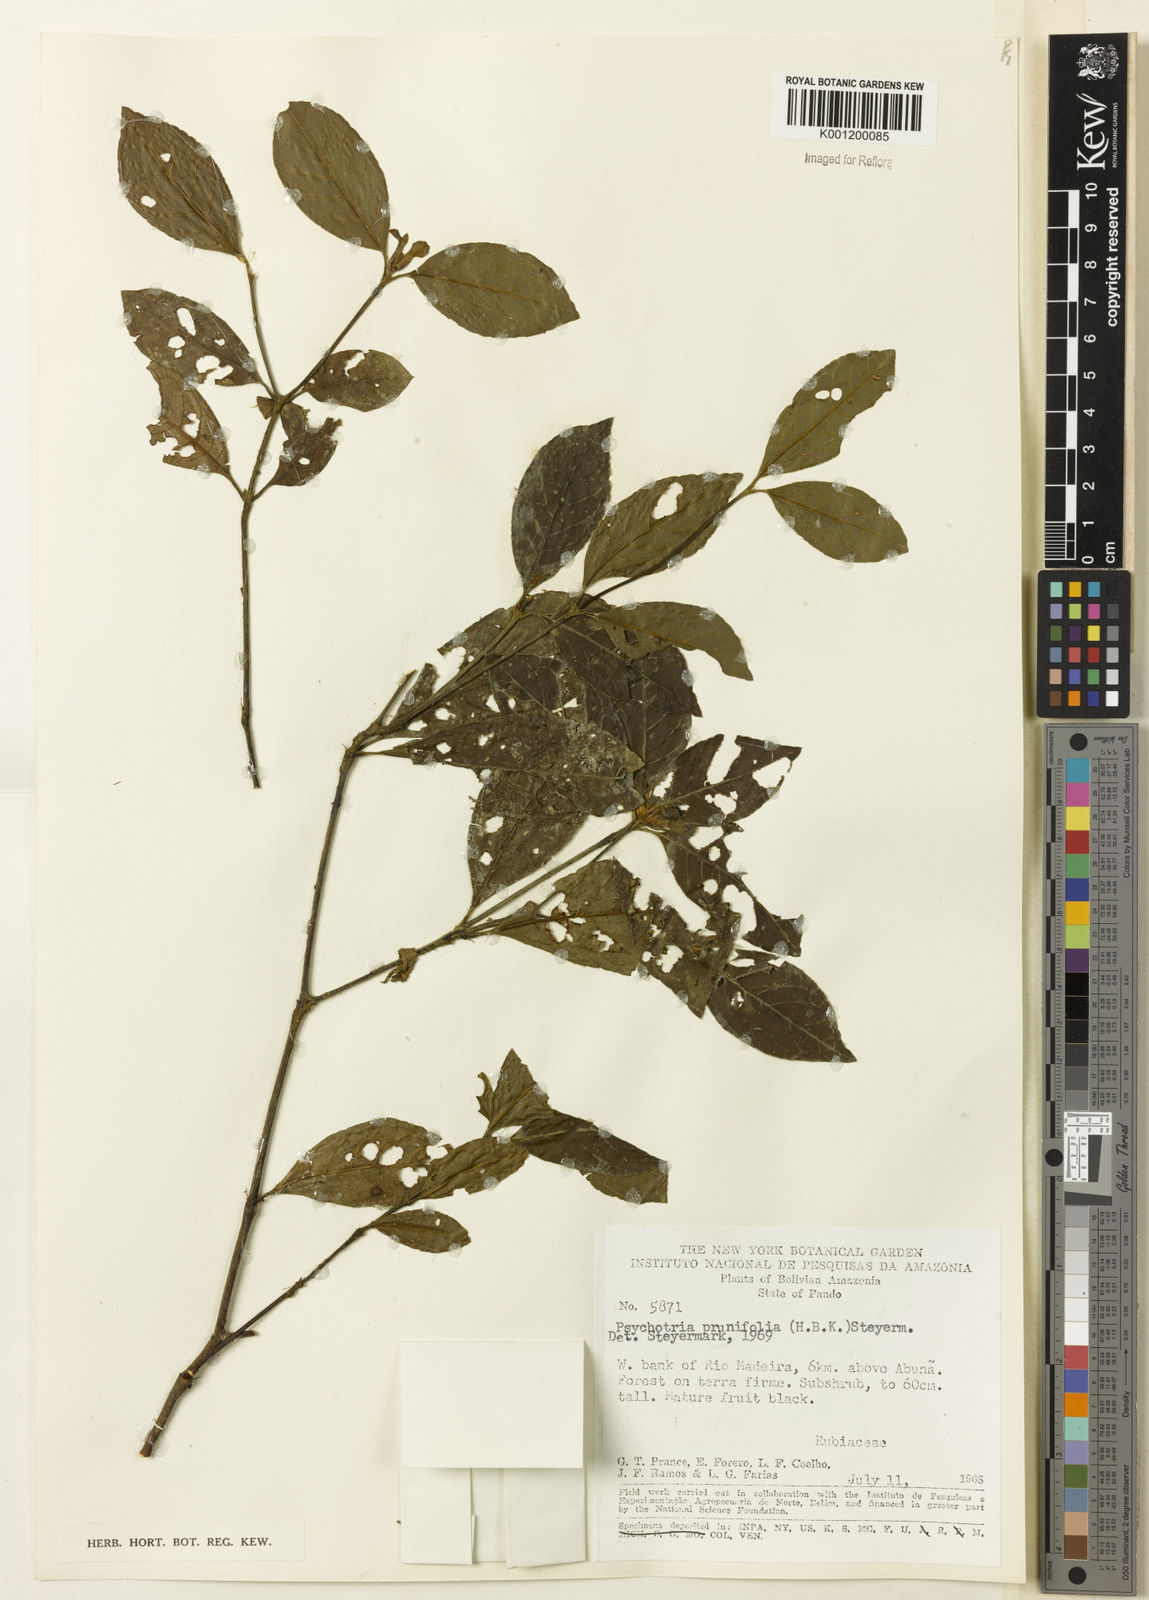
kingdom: Plantae
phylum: Tracheophyta
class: Magnoliopsida
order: Gentianales
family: Rubiaceae
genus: Palicourea
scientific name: Palicourea prunifolia
